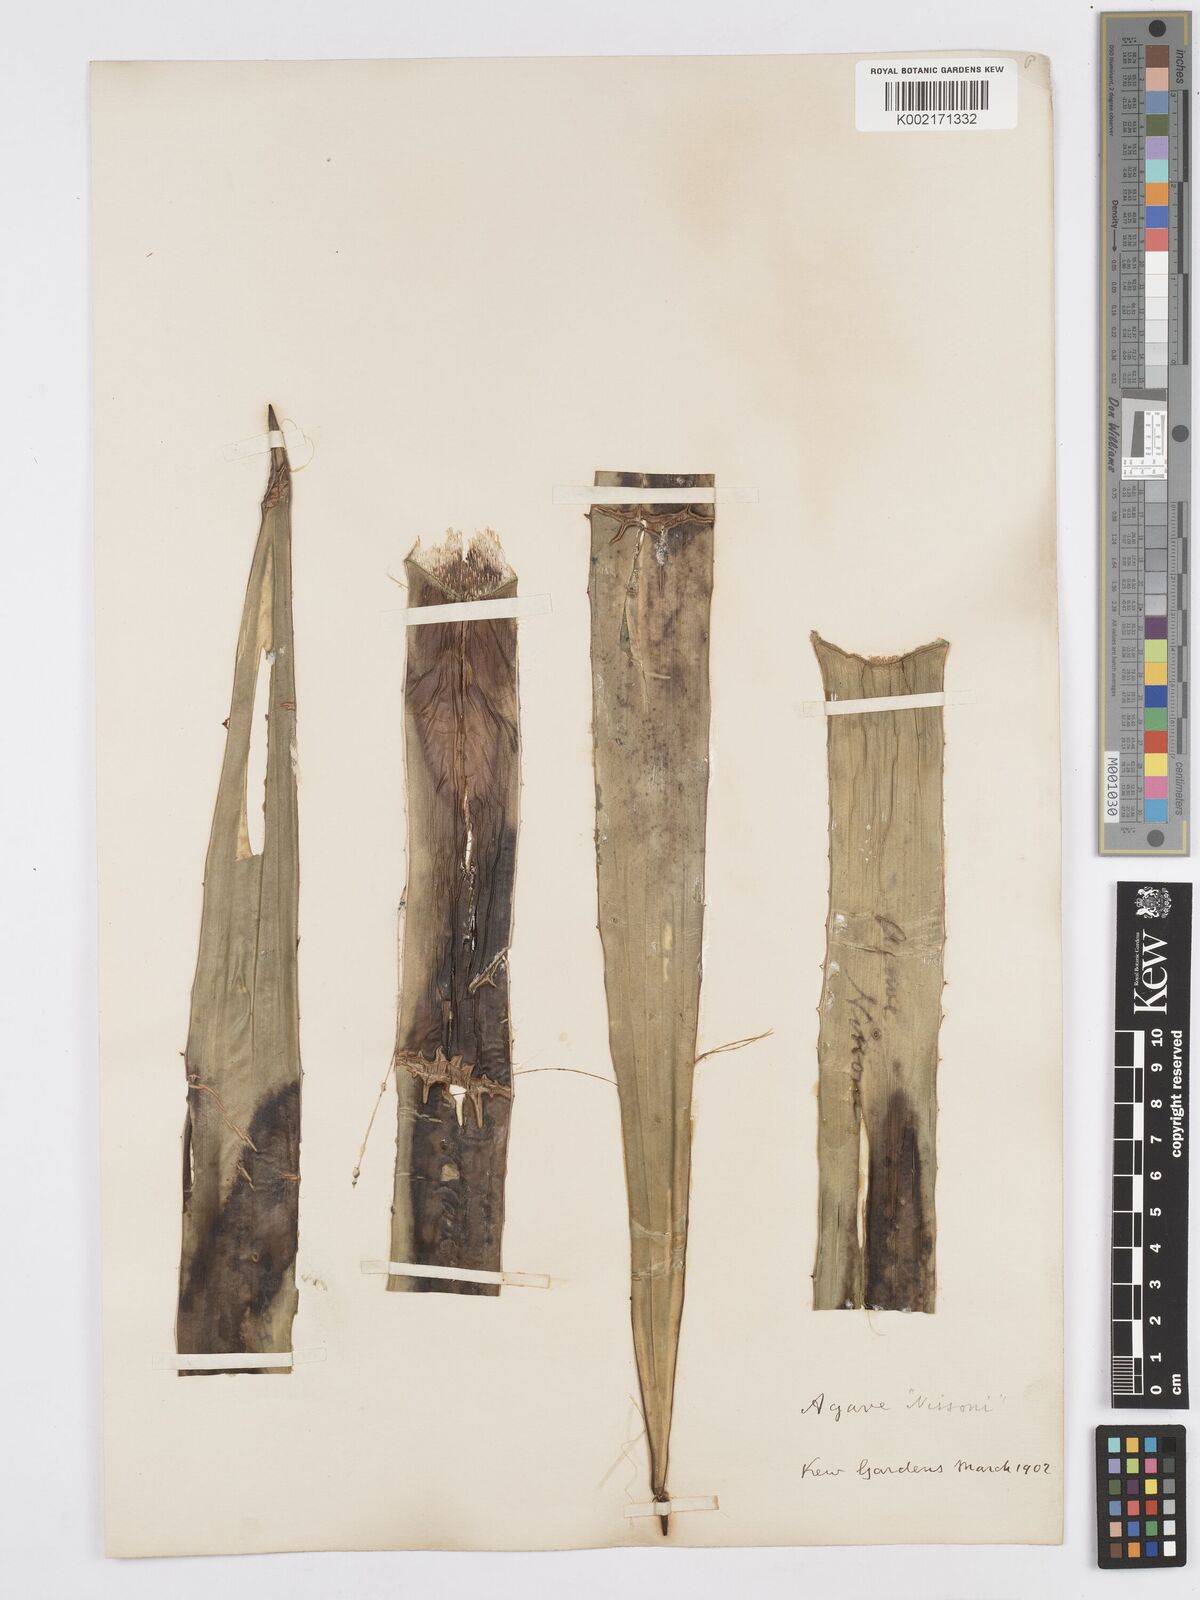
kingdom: Plantae
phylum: Tracheophyta
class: Liliopsida
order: Asparagales
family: Asparagaceae
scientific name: Asparagaceae
